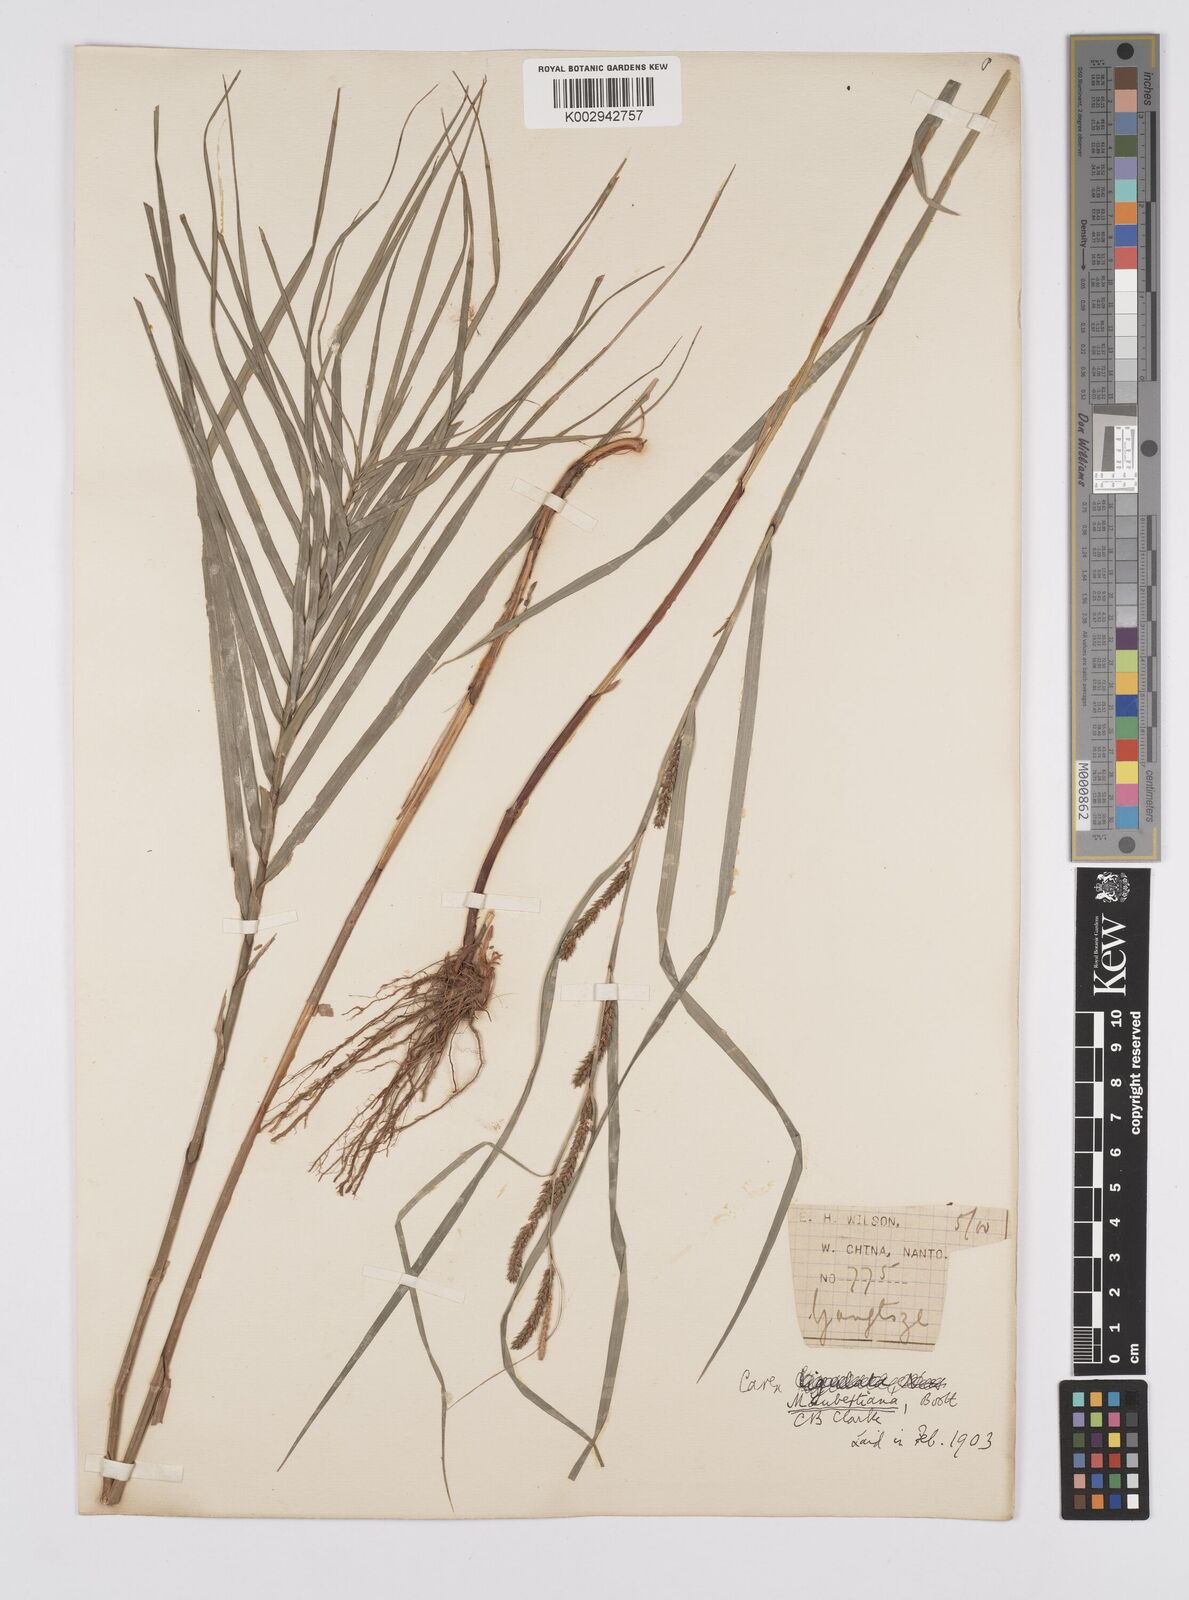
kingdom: Plantae
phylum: Tracheophyta
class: Liliopsida
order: Poales
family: Cyperaceae
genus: Carex
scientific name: Carex maubertiana
